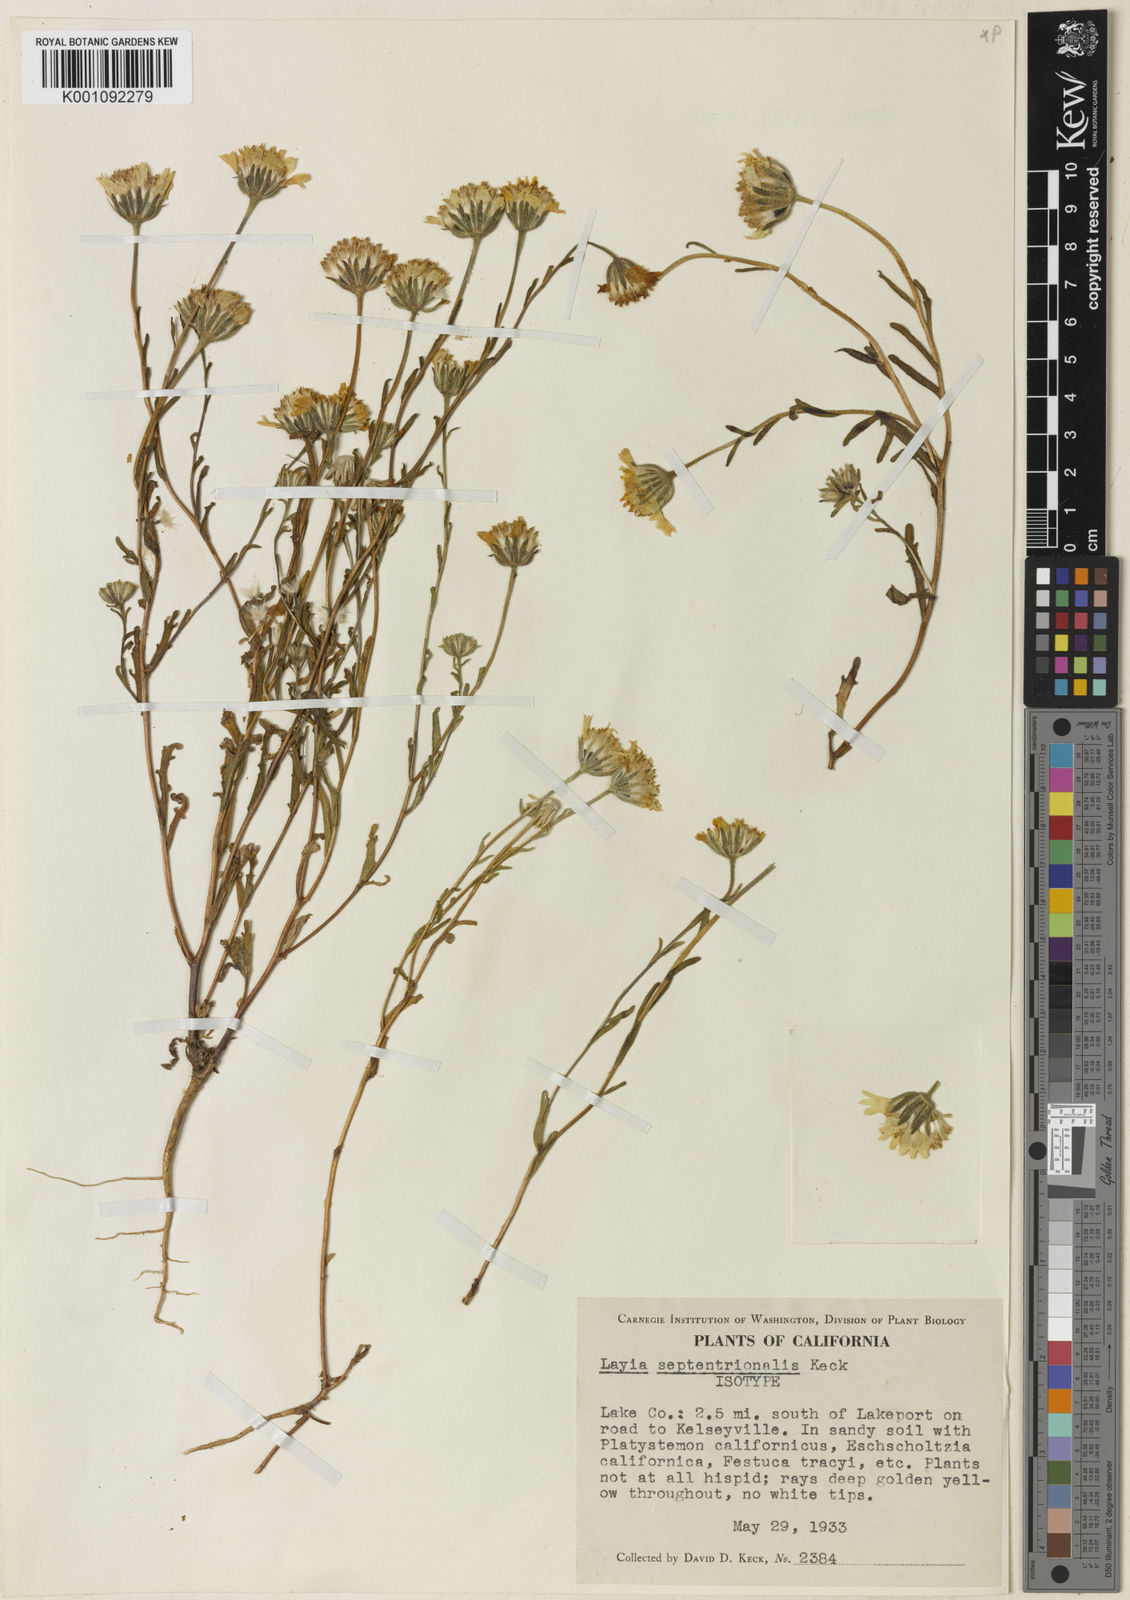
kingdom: Plantae
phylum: Tracheophyta
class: Magnoliopsida
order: Asterales
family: Asteraceae
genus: Layia
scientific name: Layia septentrionalis
